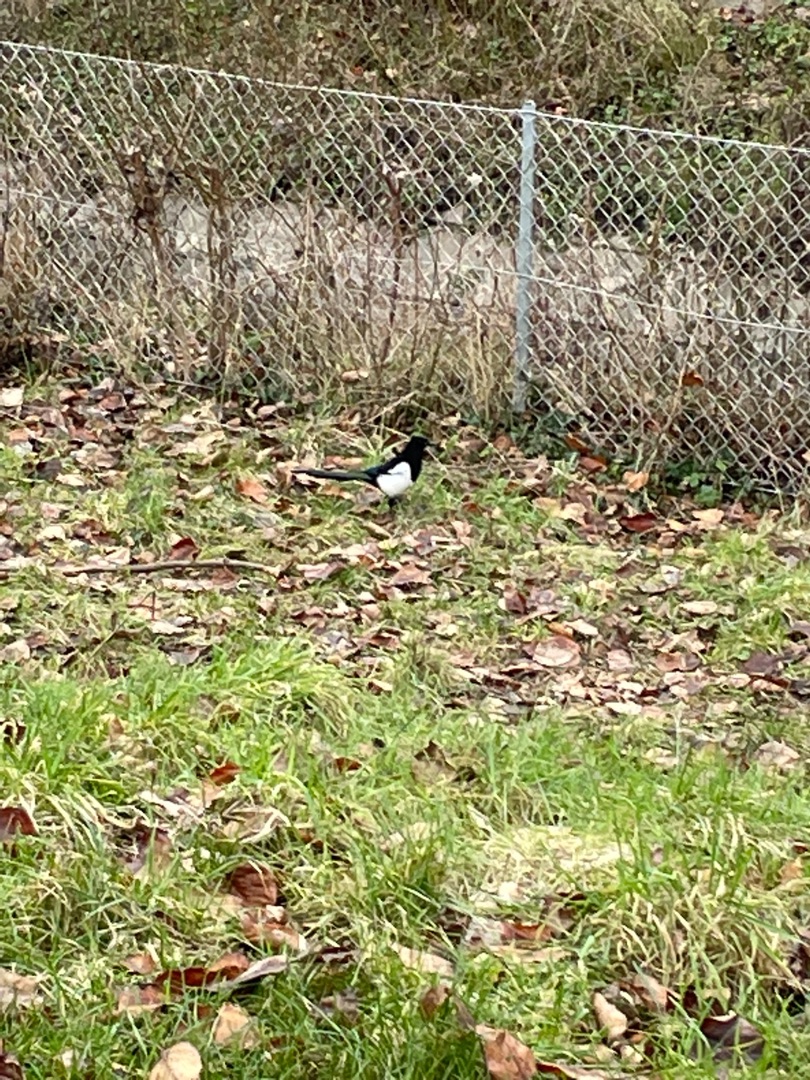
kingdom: Animalia
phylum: Chordata
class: Aves
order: Passeriformes
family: Corvidae
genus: Pica
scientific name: Pica pica
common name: Husskade
